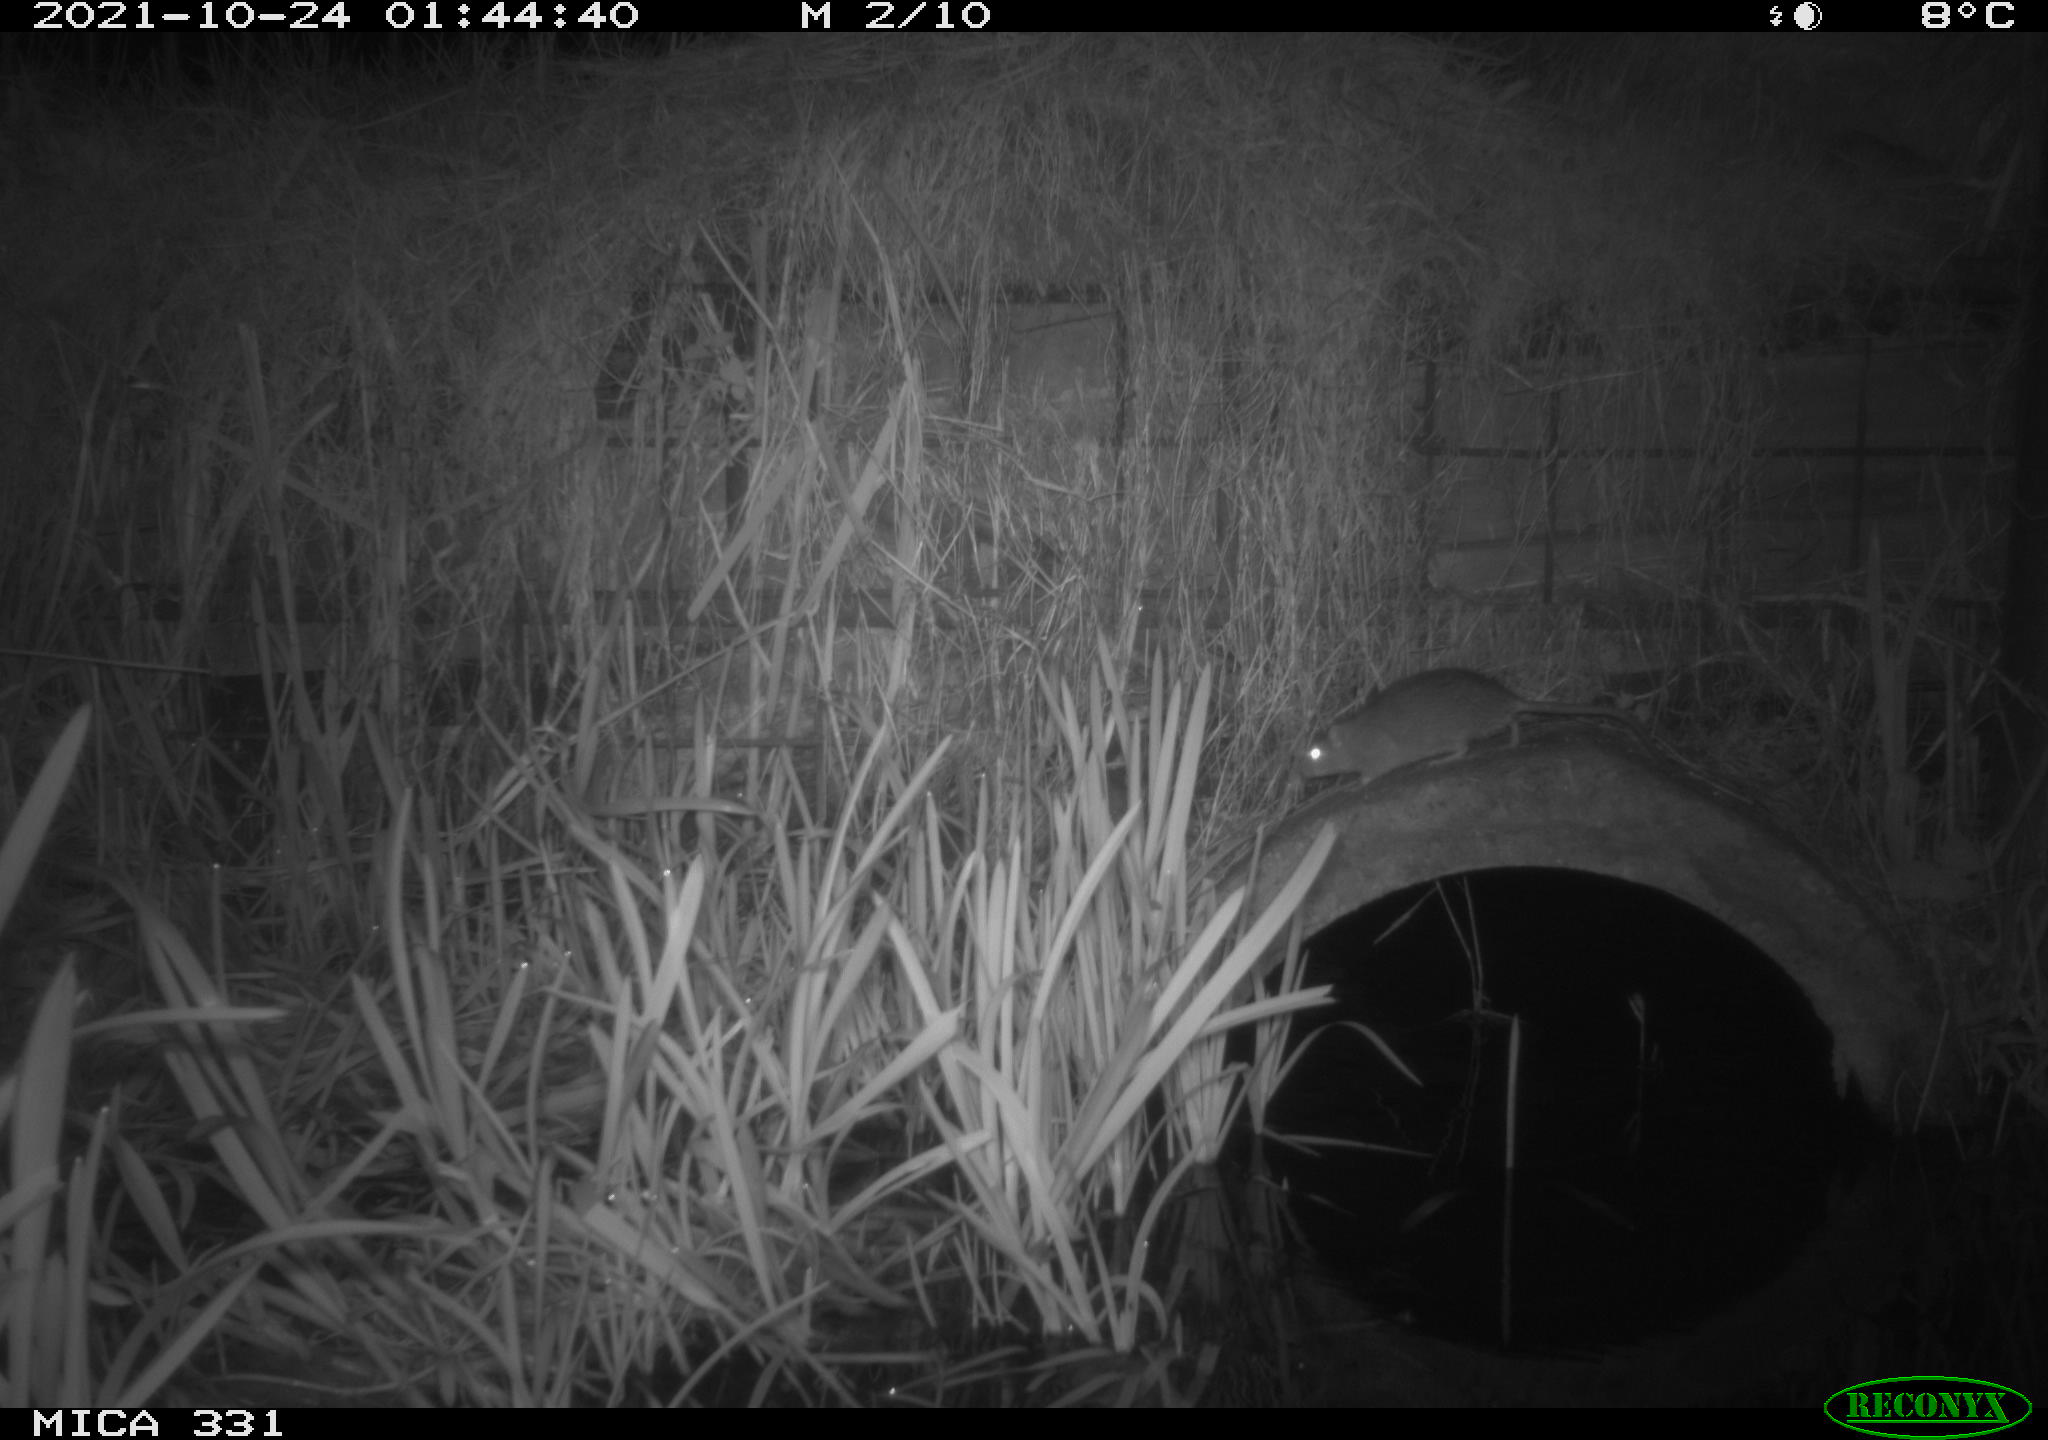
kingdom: Animalia
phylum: Chordata
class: Mammalia
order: Rodentia
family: Muridae
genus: Rattus
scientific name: Rattus norvegicus
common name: Brown rat
